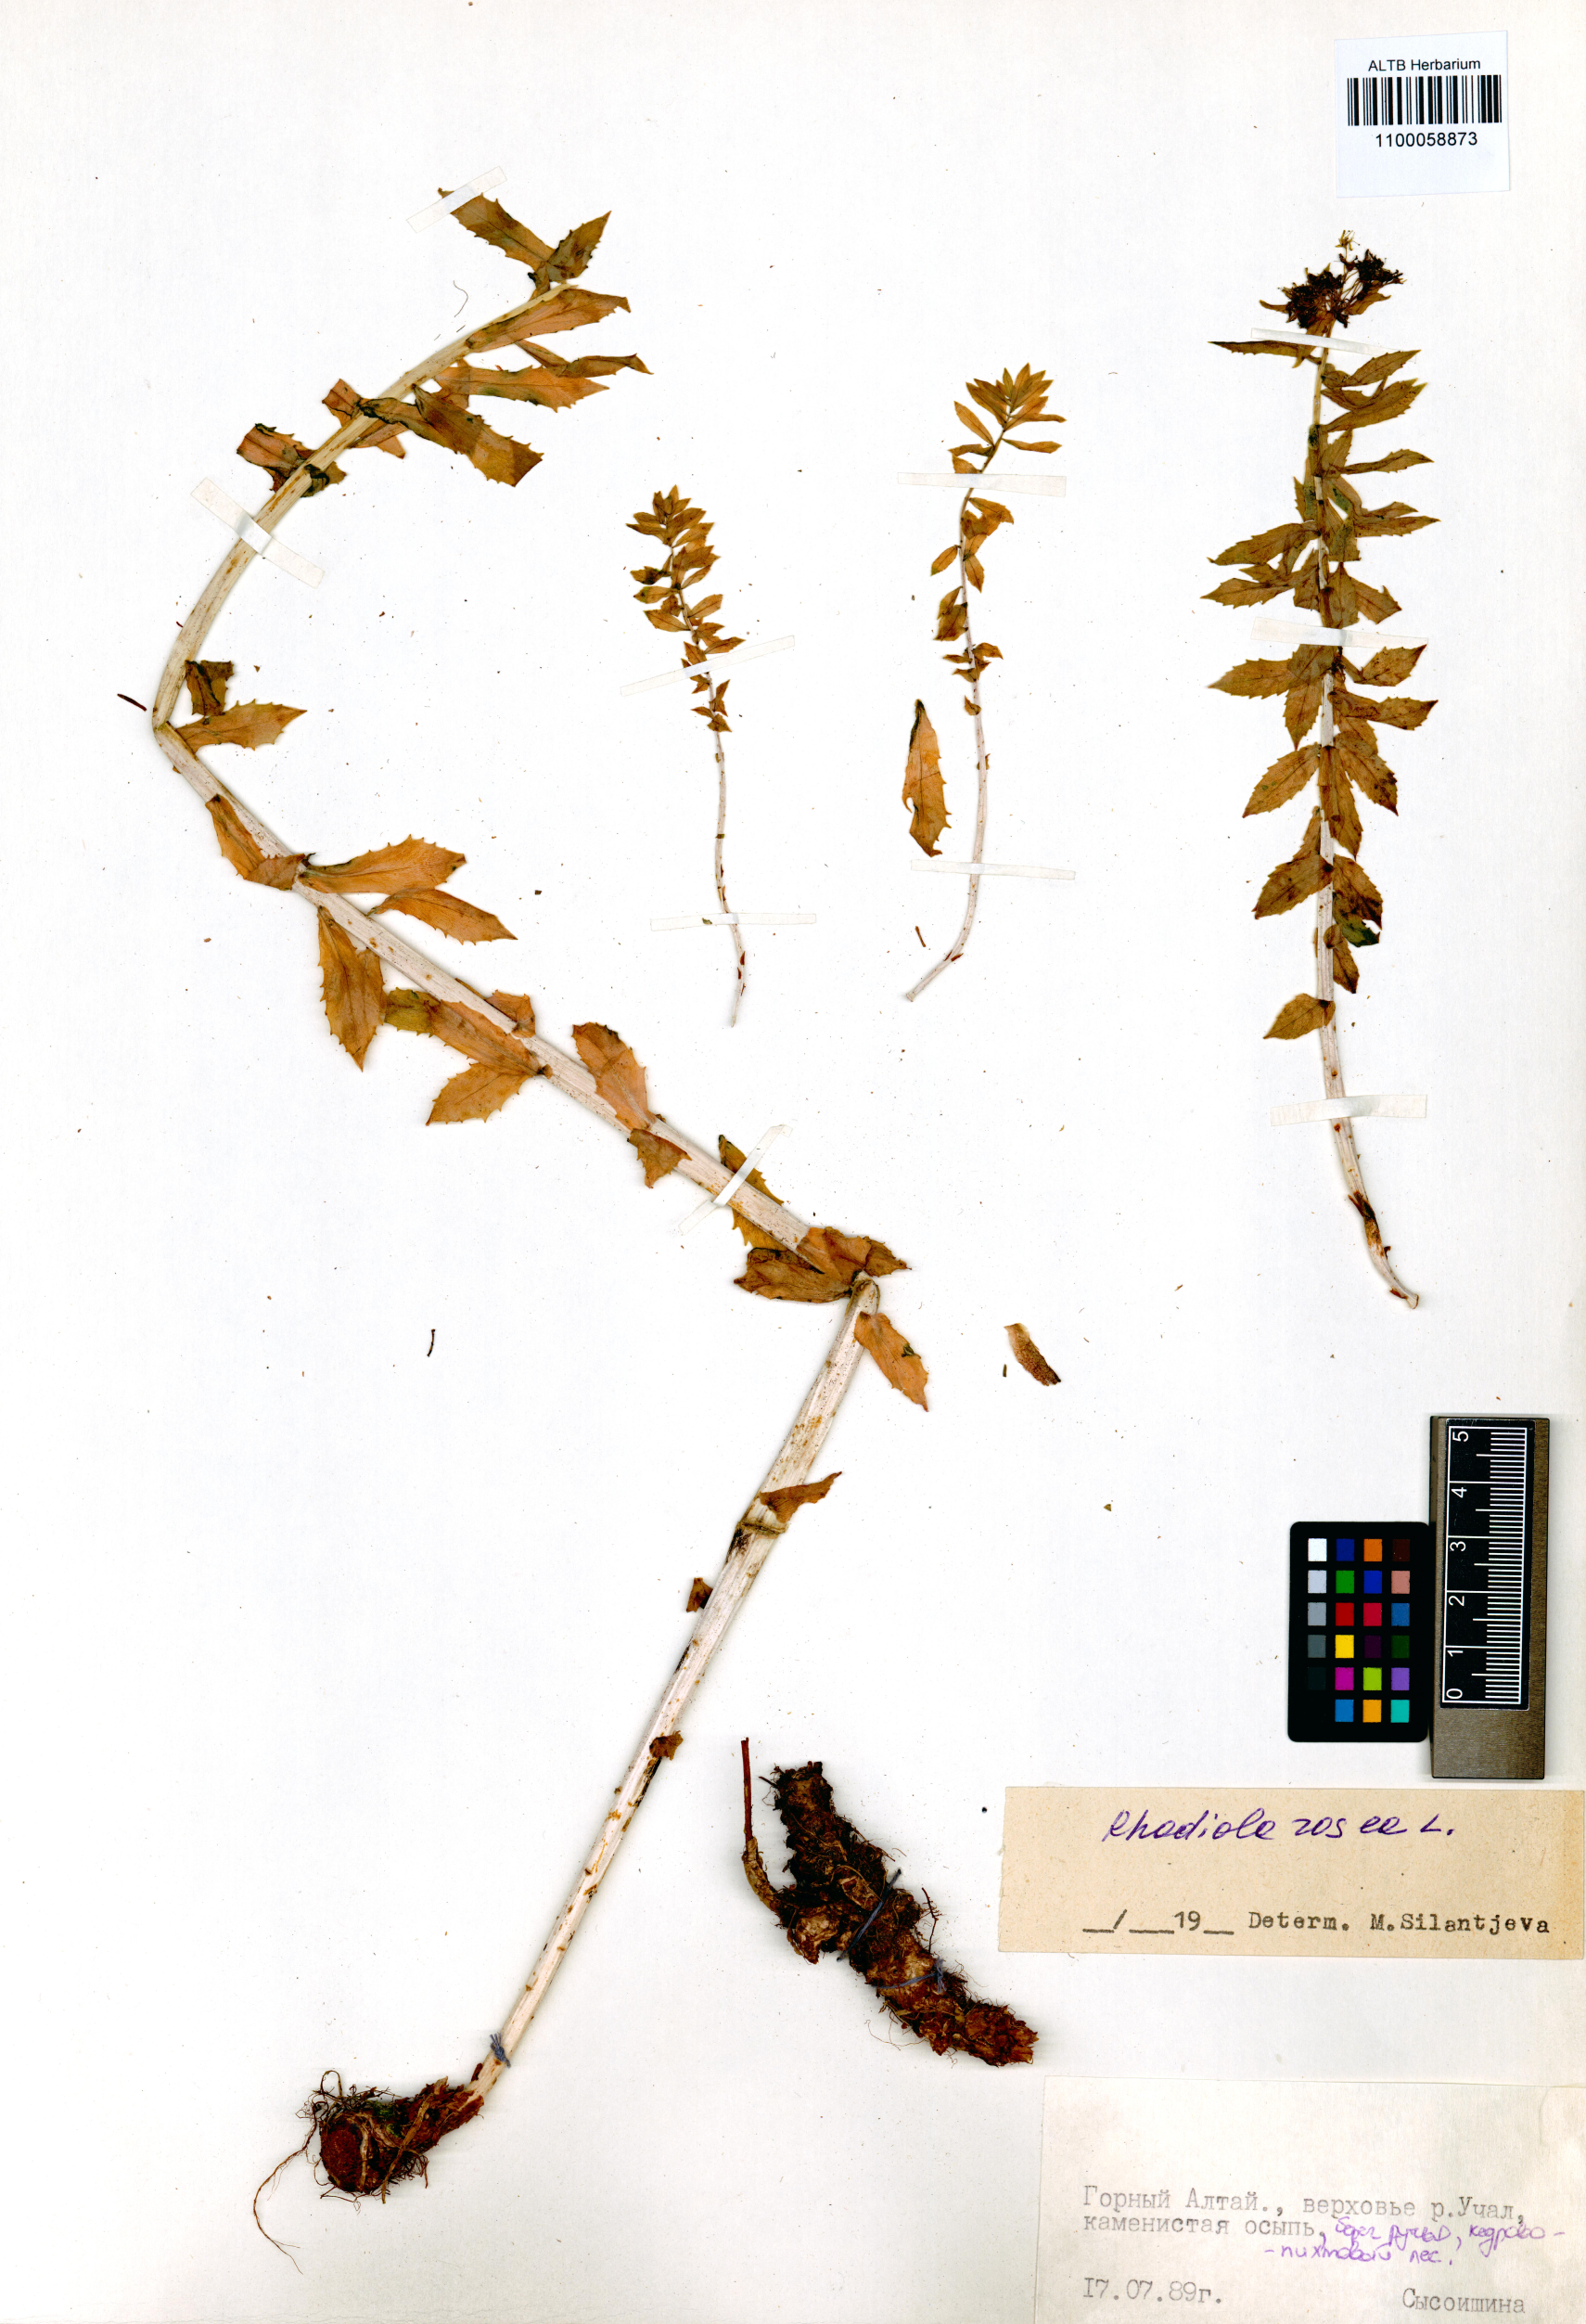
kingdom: Plantae
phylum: Tracheophyta
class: Magnoliopsida
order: Saxifragales
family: Crassulaceae
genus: Rhodiola
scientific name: Rhodiola rosea
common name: Roseroot
